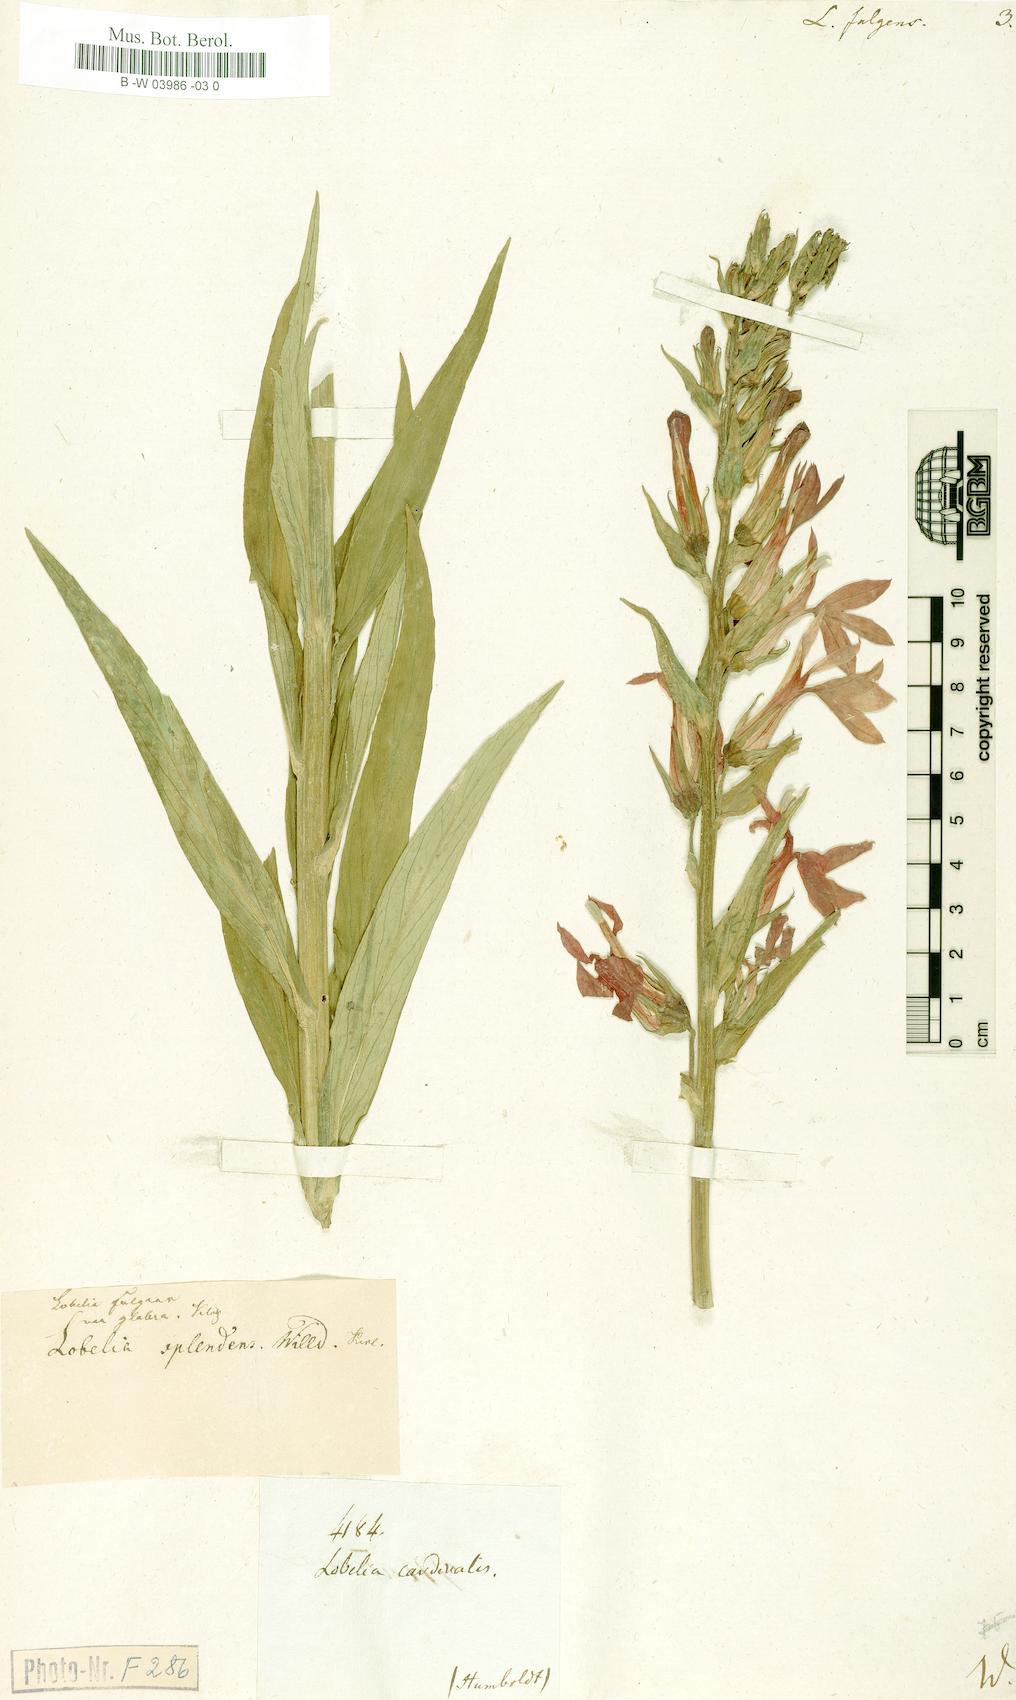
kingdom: Plantae
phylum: Tracheophyta
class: Magnoliopsida
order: Asterales
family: Campanulaceae
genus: Lobelia
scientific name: Lobelia cardinalis
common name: Cardinal flower
